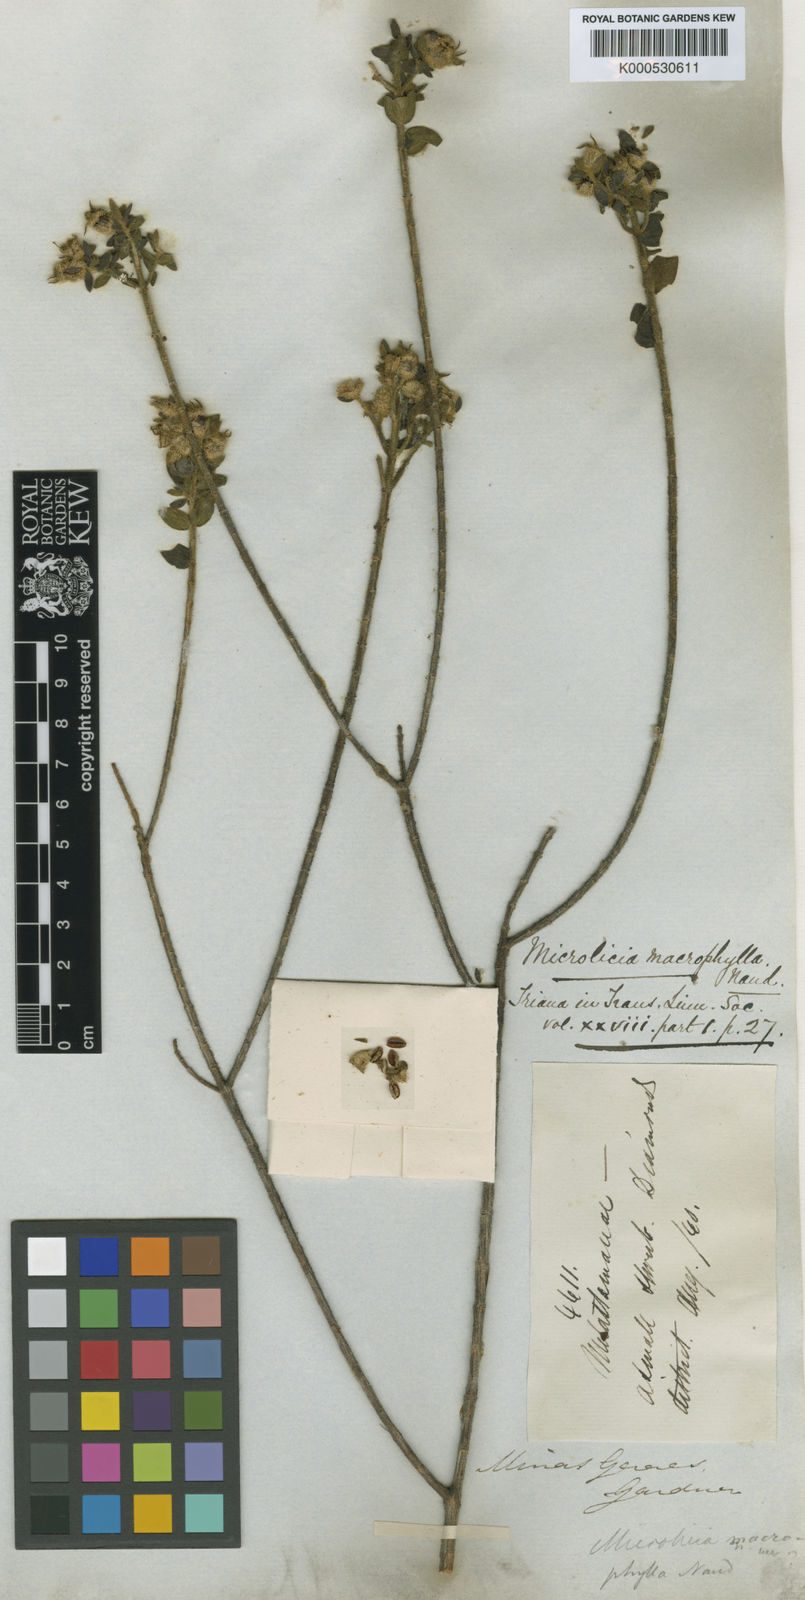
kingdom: Plantae
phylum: Tracheophyta
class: Magnoliopsida
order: Myrtales
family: Melastomataceae
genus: Microlicia
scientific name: Microlicia macrophylla
